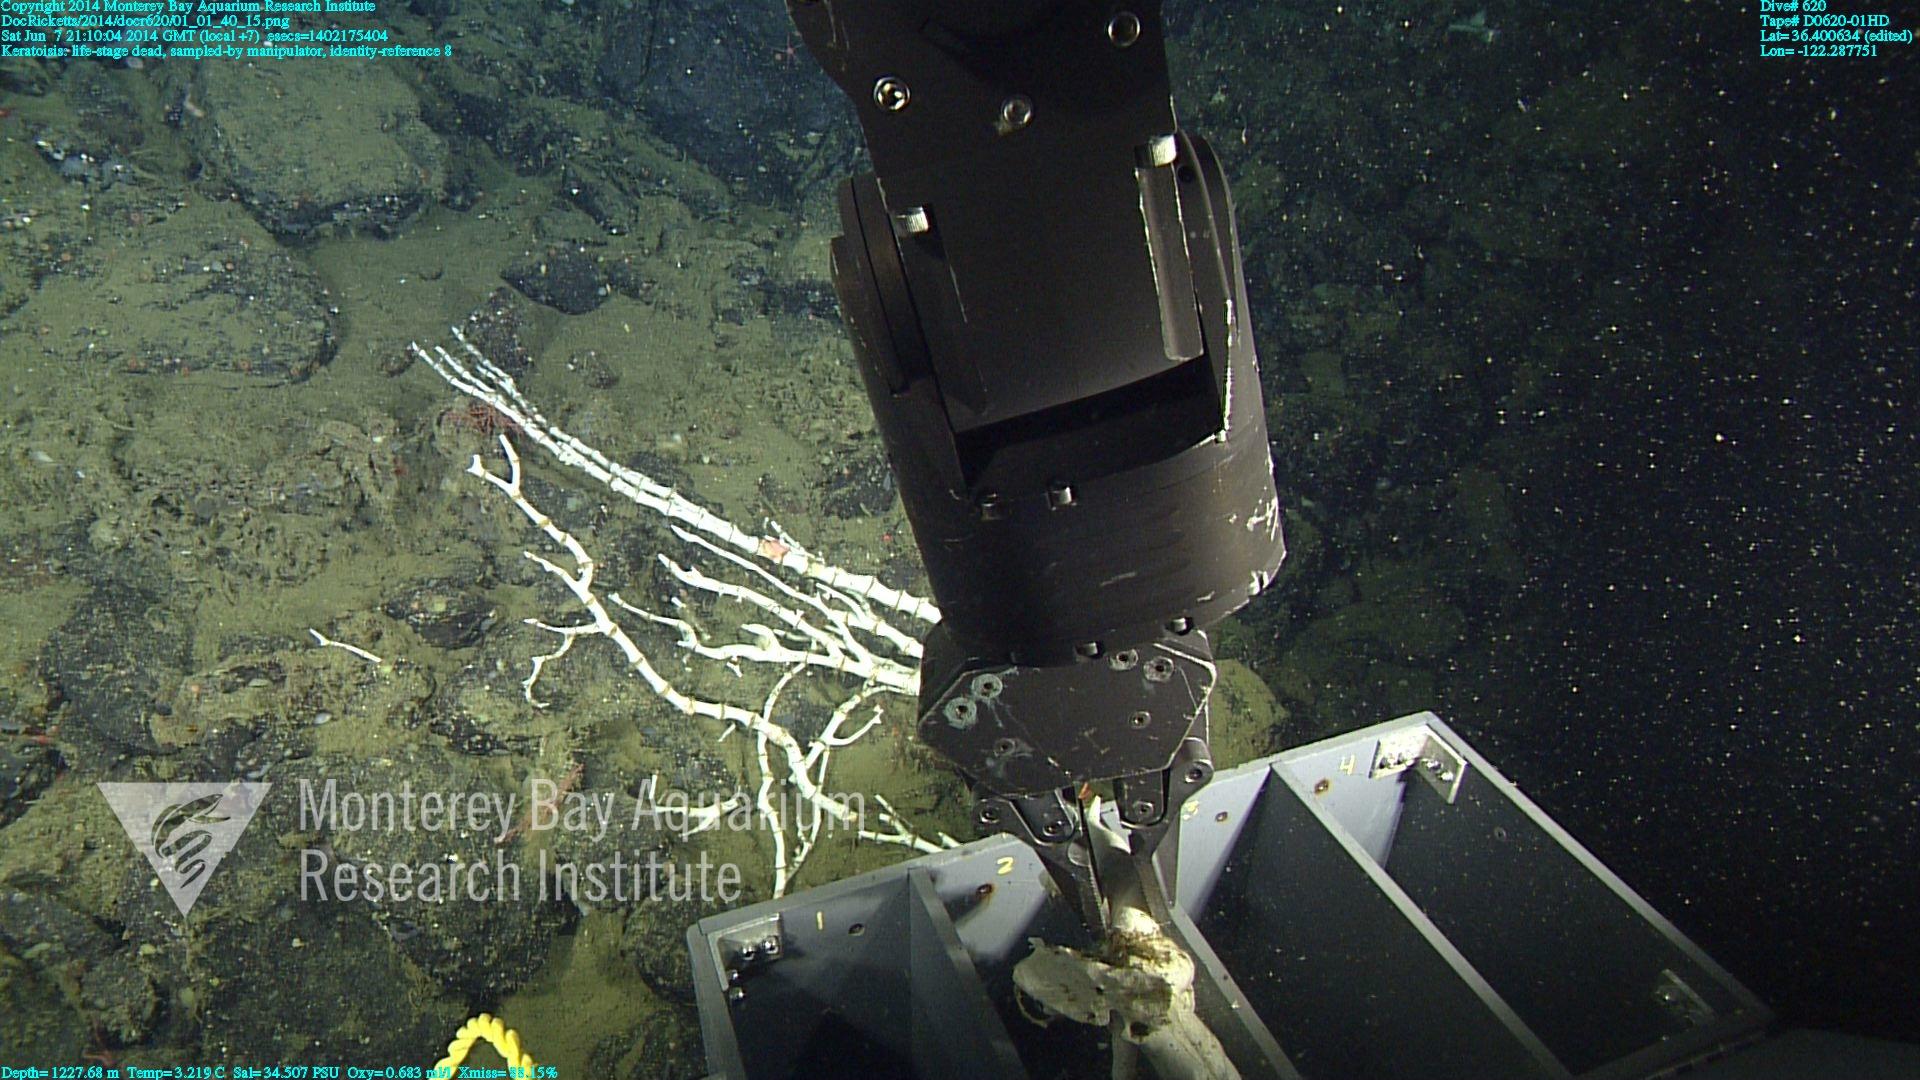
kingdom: Animalia
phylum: Cnidaria
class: Anthozoa
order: Scleralcyonacea
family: Keratoisididae
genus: Keratoisis
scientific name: Keratoisis
